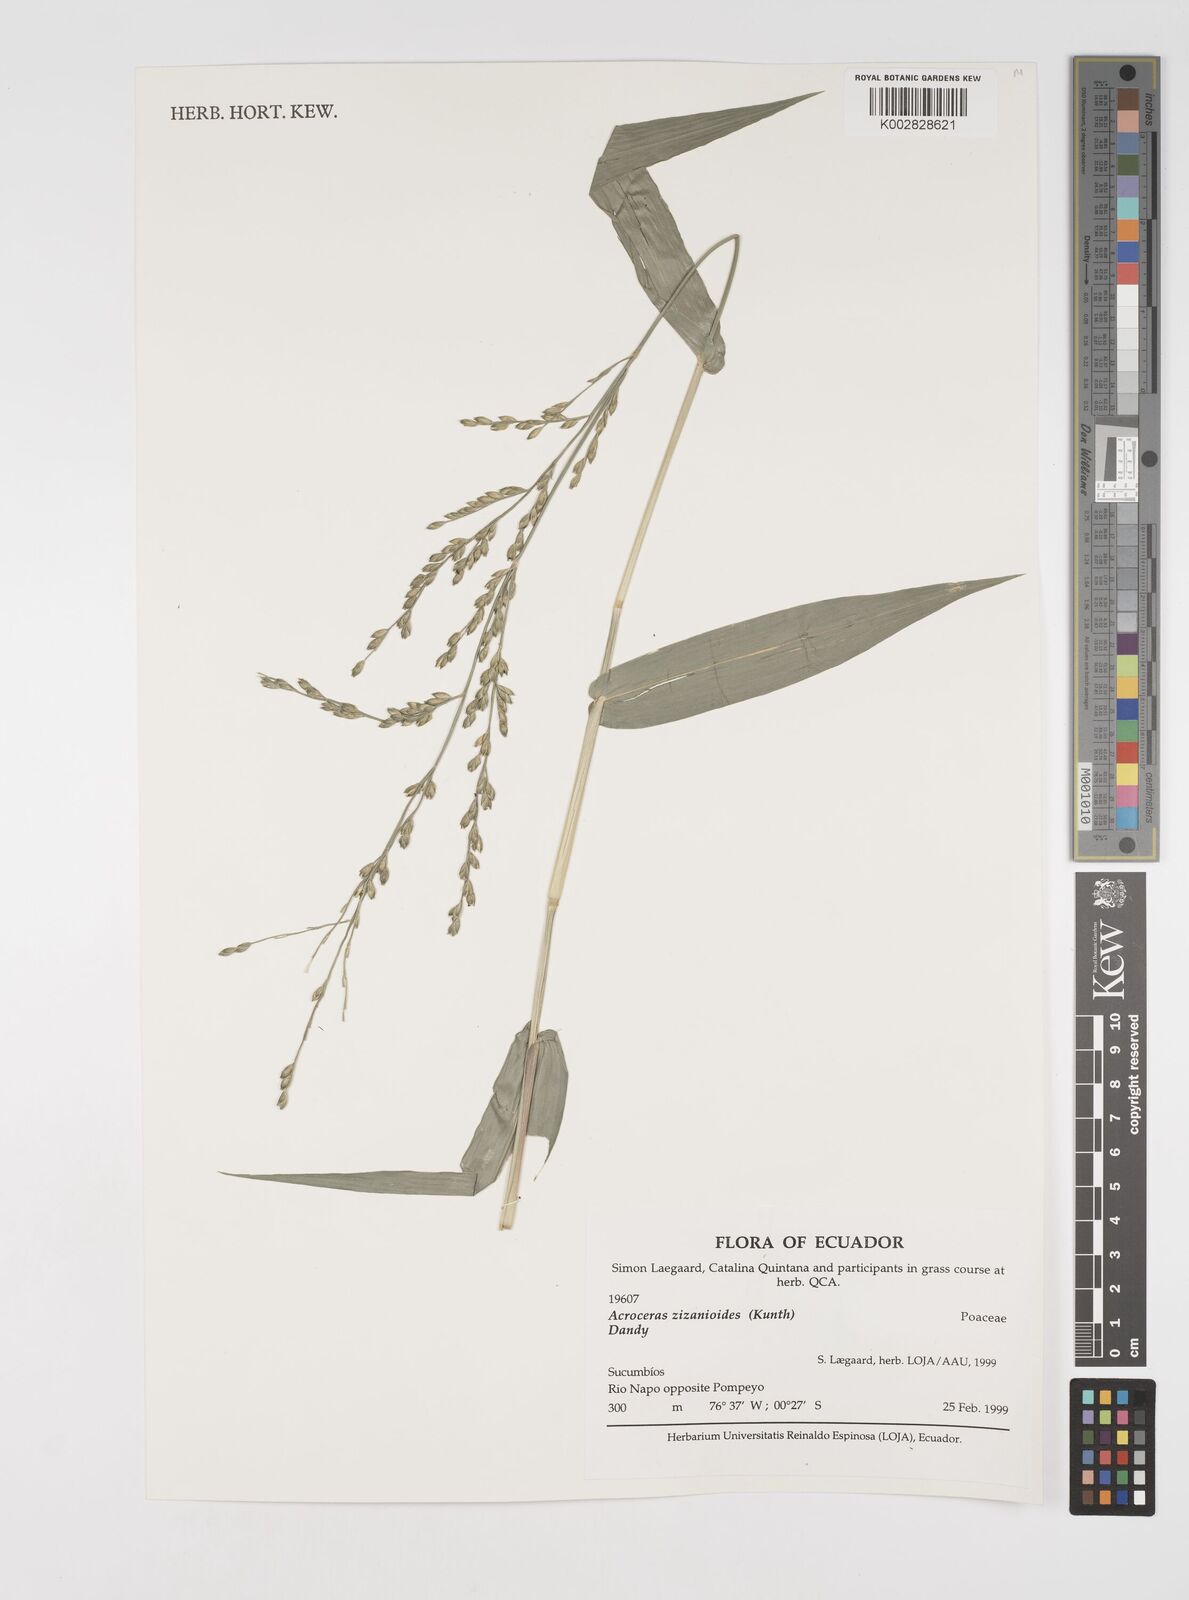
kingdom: Plantae
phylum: Tracheophyta
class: Liliopsida
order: Poales
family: Poaceae
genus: Acroceras
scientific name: Acroceras zizanioides
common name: Oat grass
